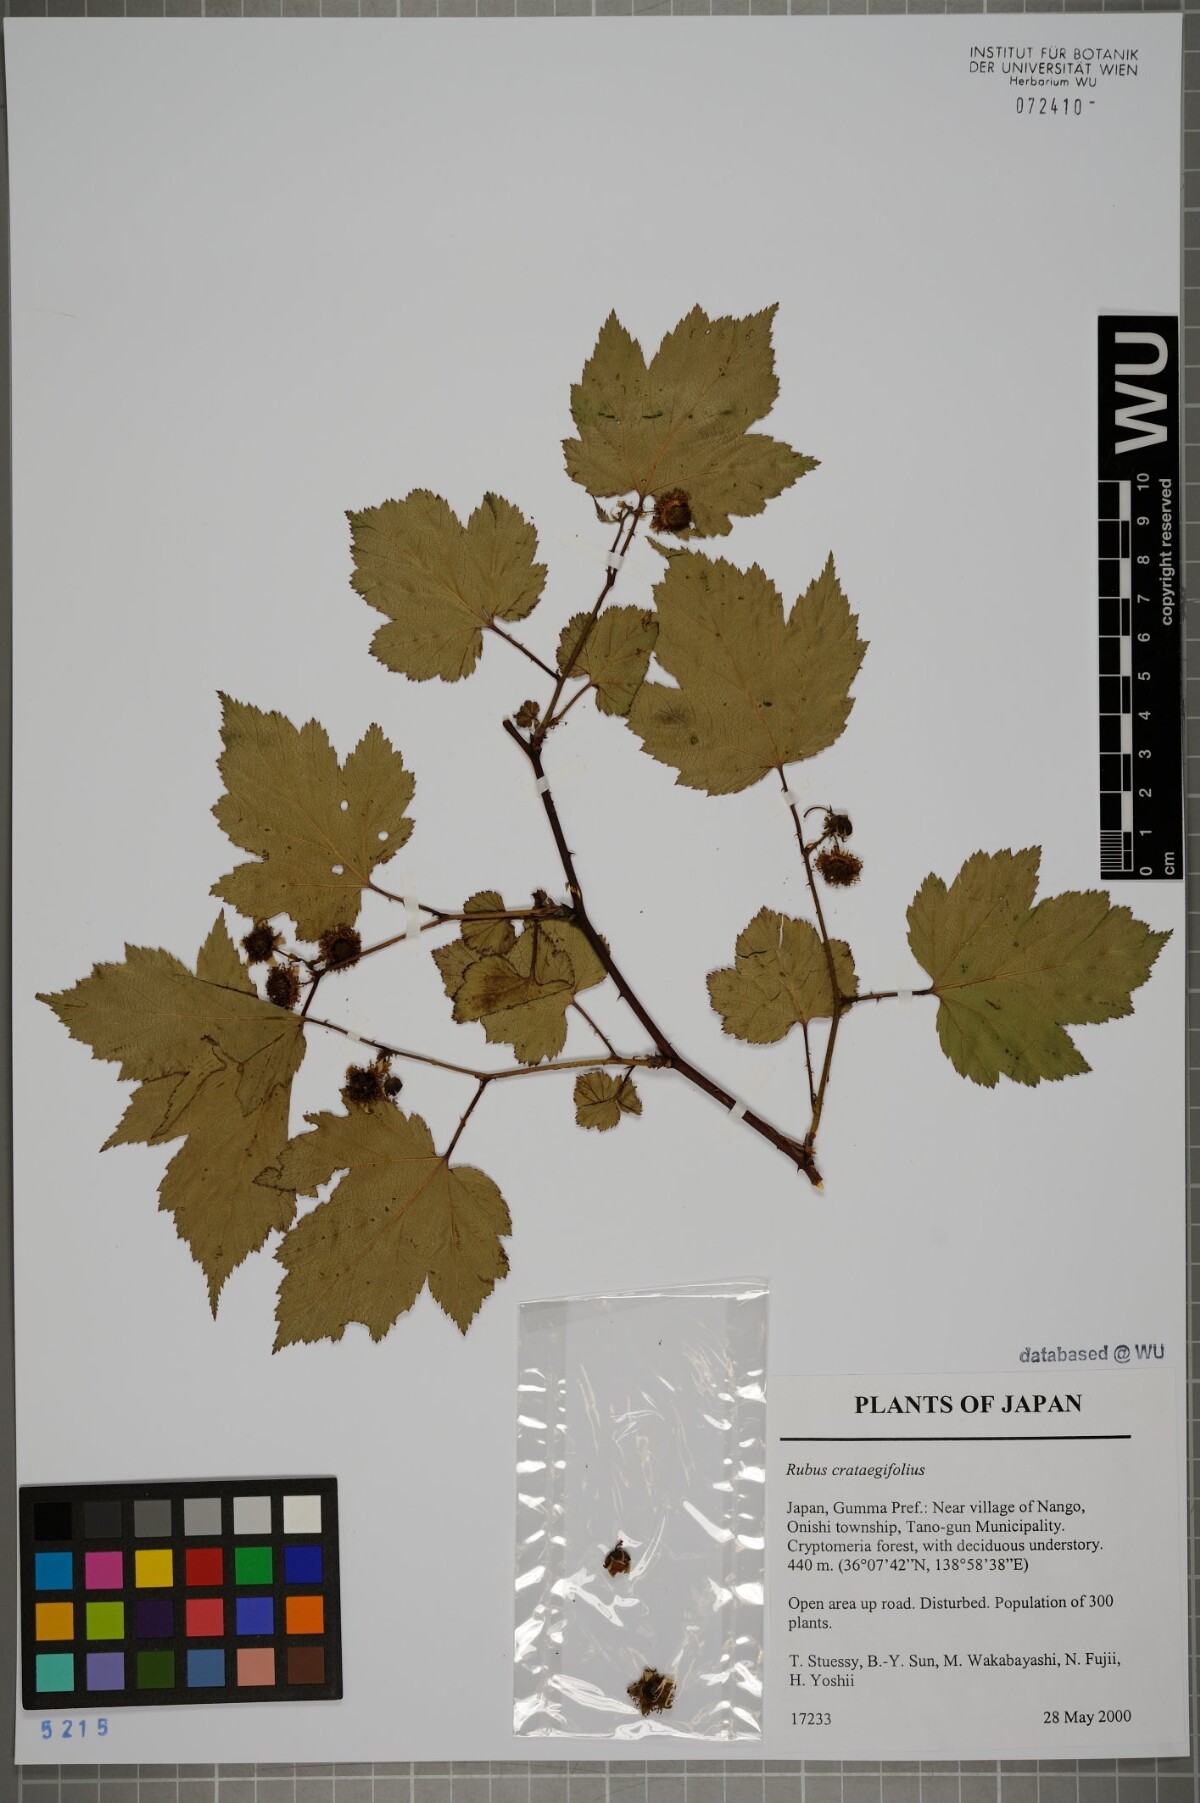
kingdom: Plantae
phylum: Tracheophyta
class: Magnoliopsida
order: Rosales
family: Rosaceae
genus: Rubus
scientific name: Rubus crataegifolius
